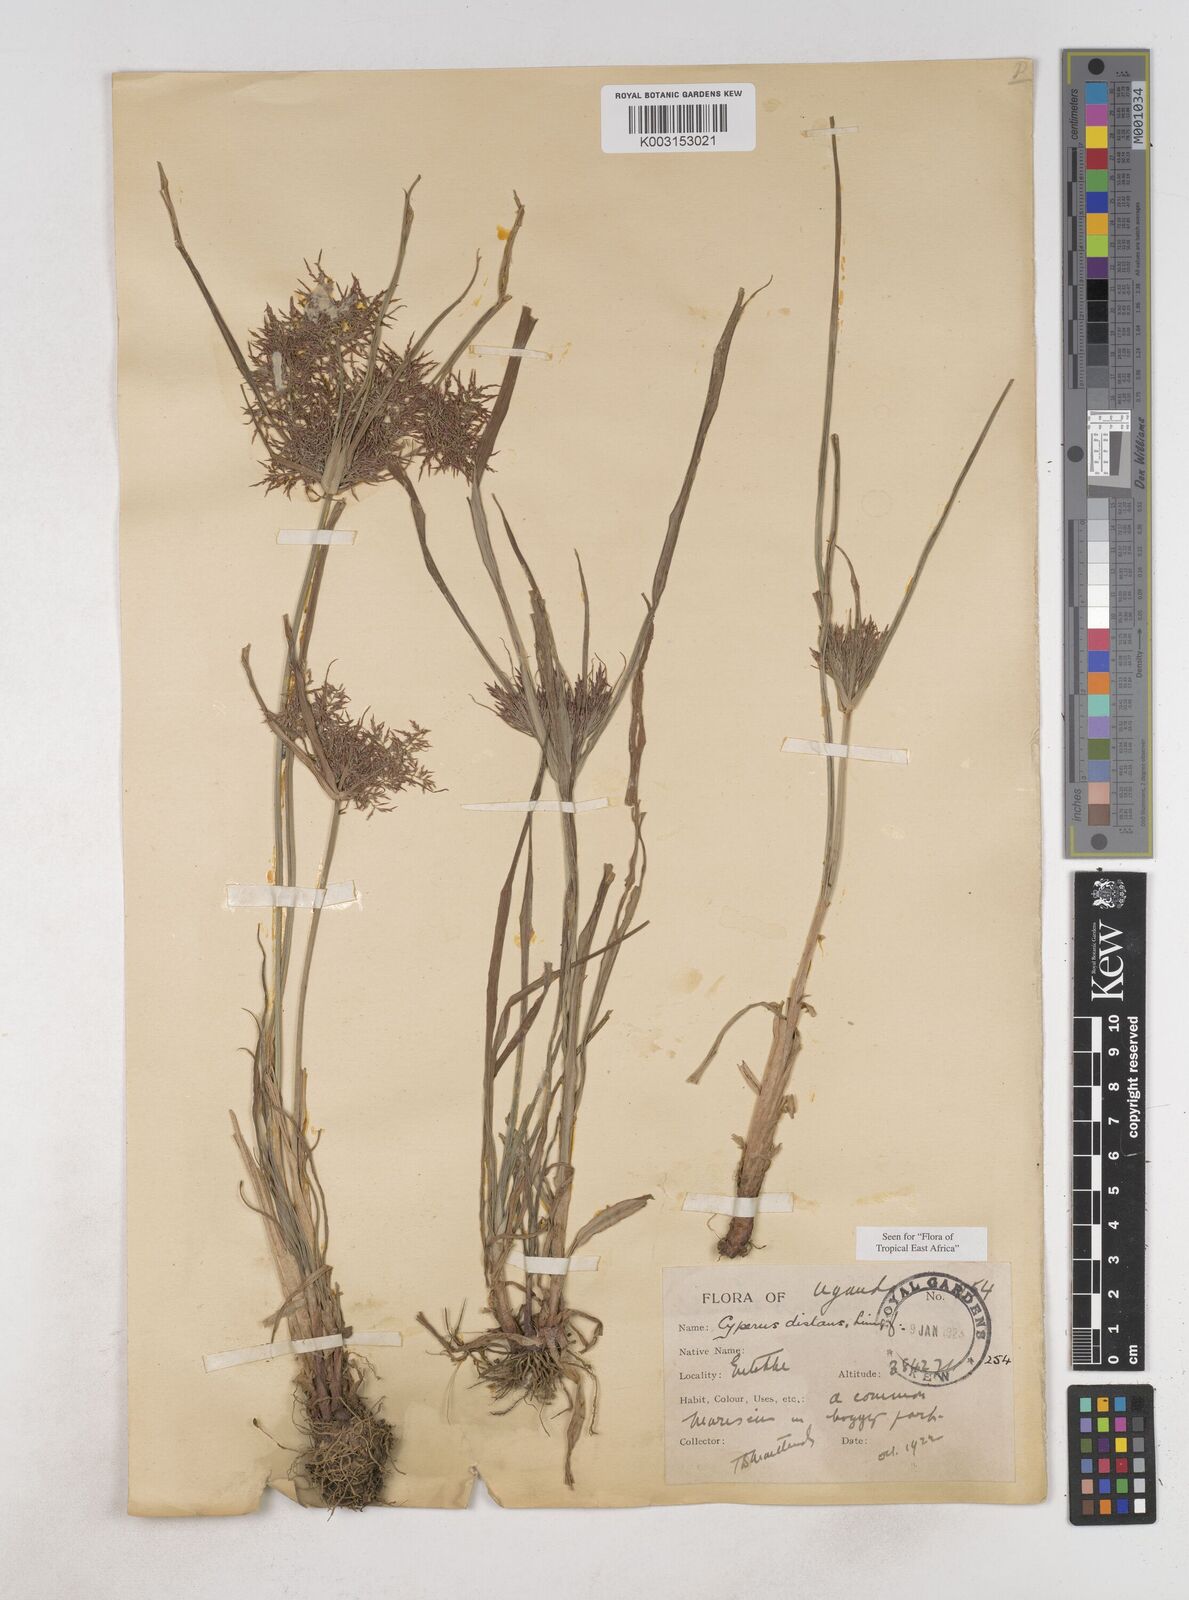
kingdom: Plantae
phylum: Tracheophyta
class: Liliopsida
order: Poales
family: Cyperaceae
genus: Cyperus
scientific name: Cyperus distans
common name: Slender cyperus
